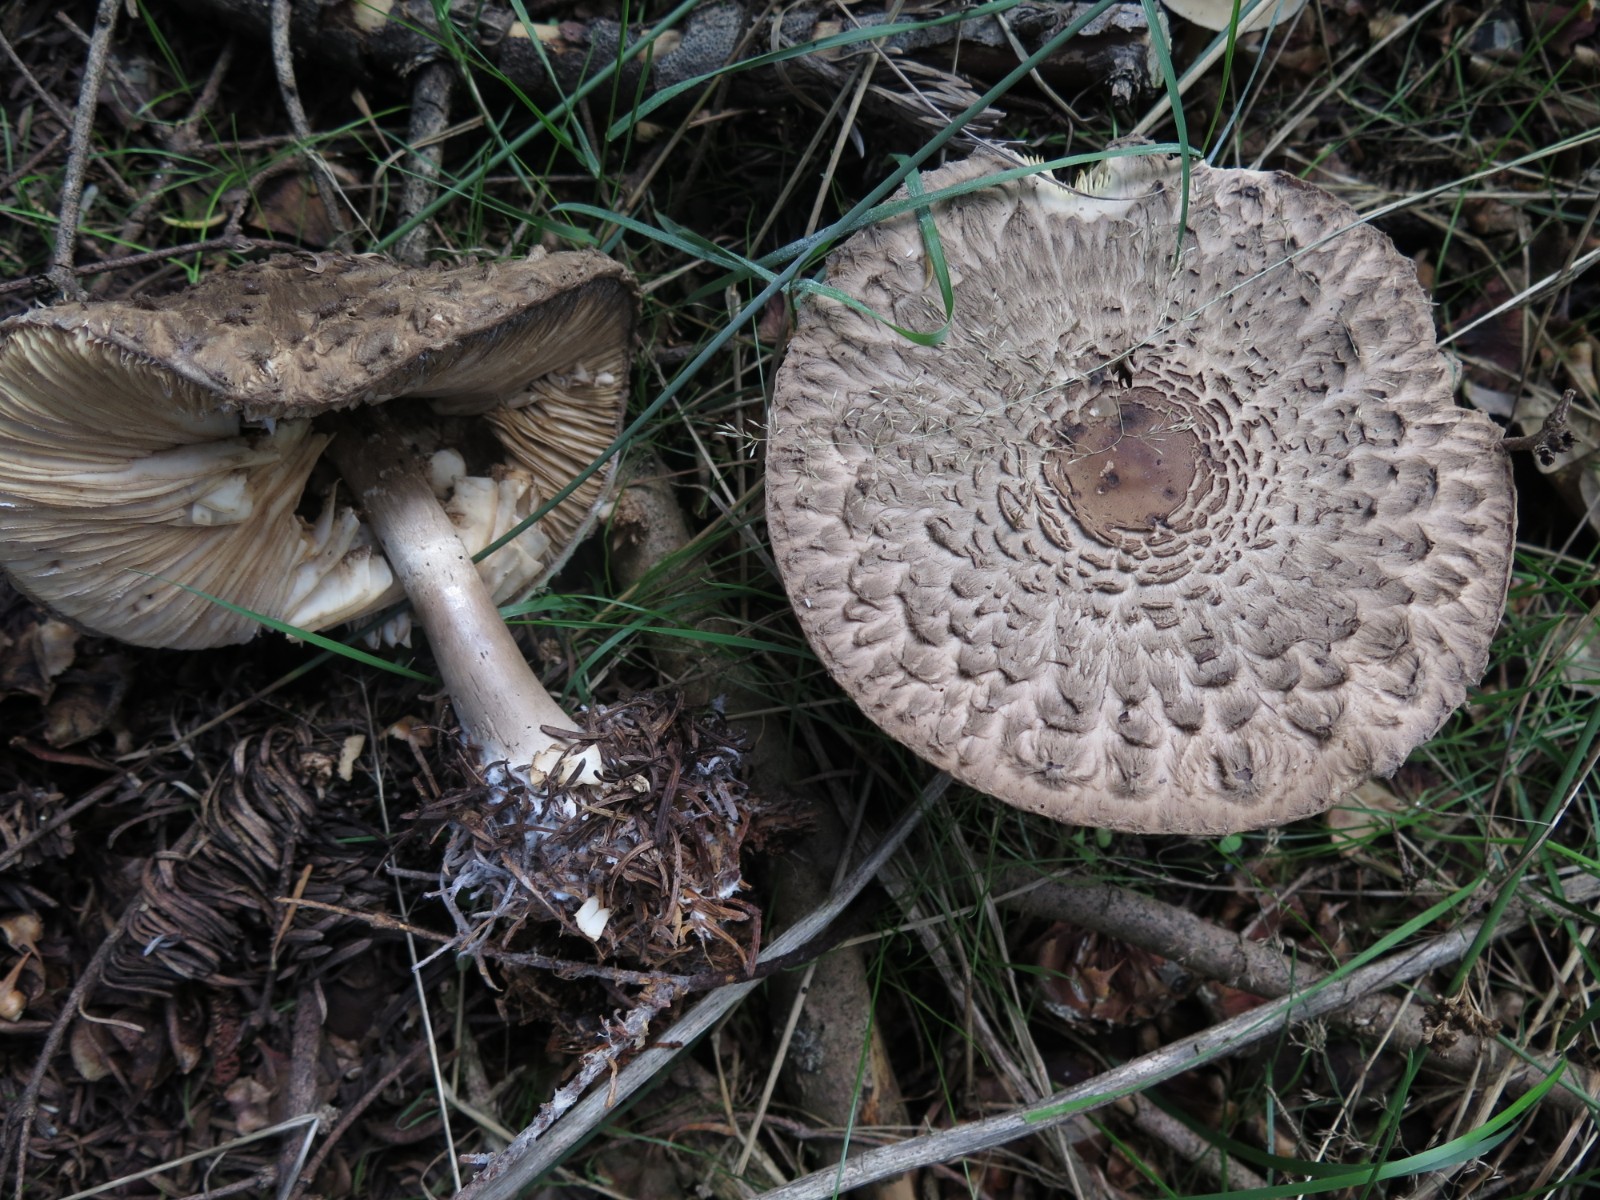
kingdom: Fungi
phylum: Basidiomycota
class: Agaricomycetes
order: Agaricales
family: Agaricaceae
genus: Chlorophyllum
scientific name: Chlorophyllum olivieri
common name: almindelig rabarberhat
